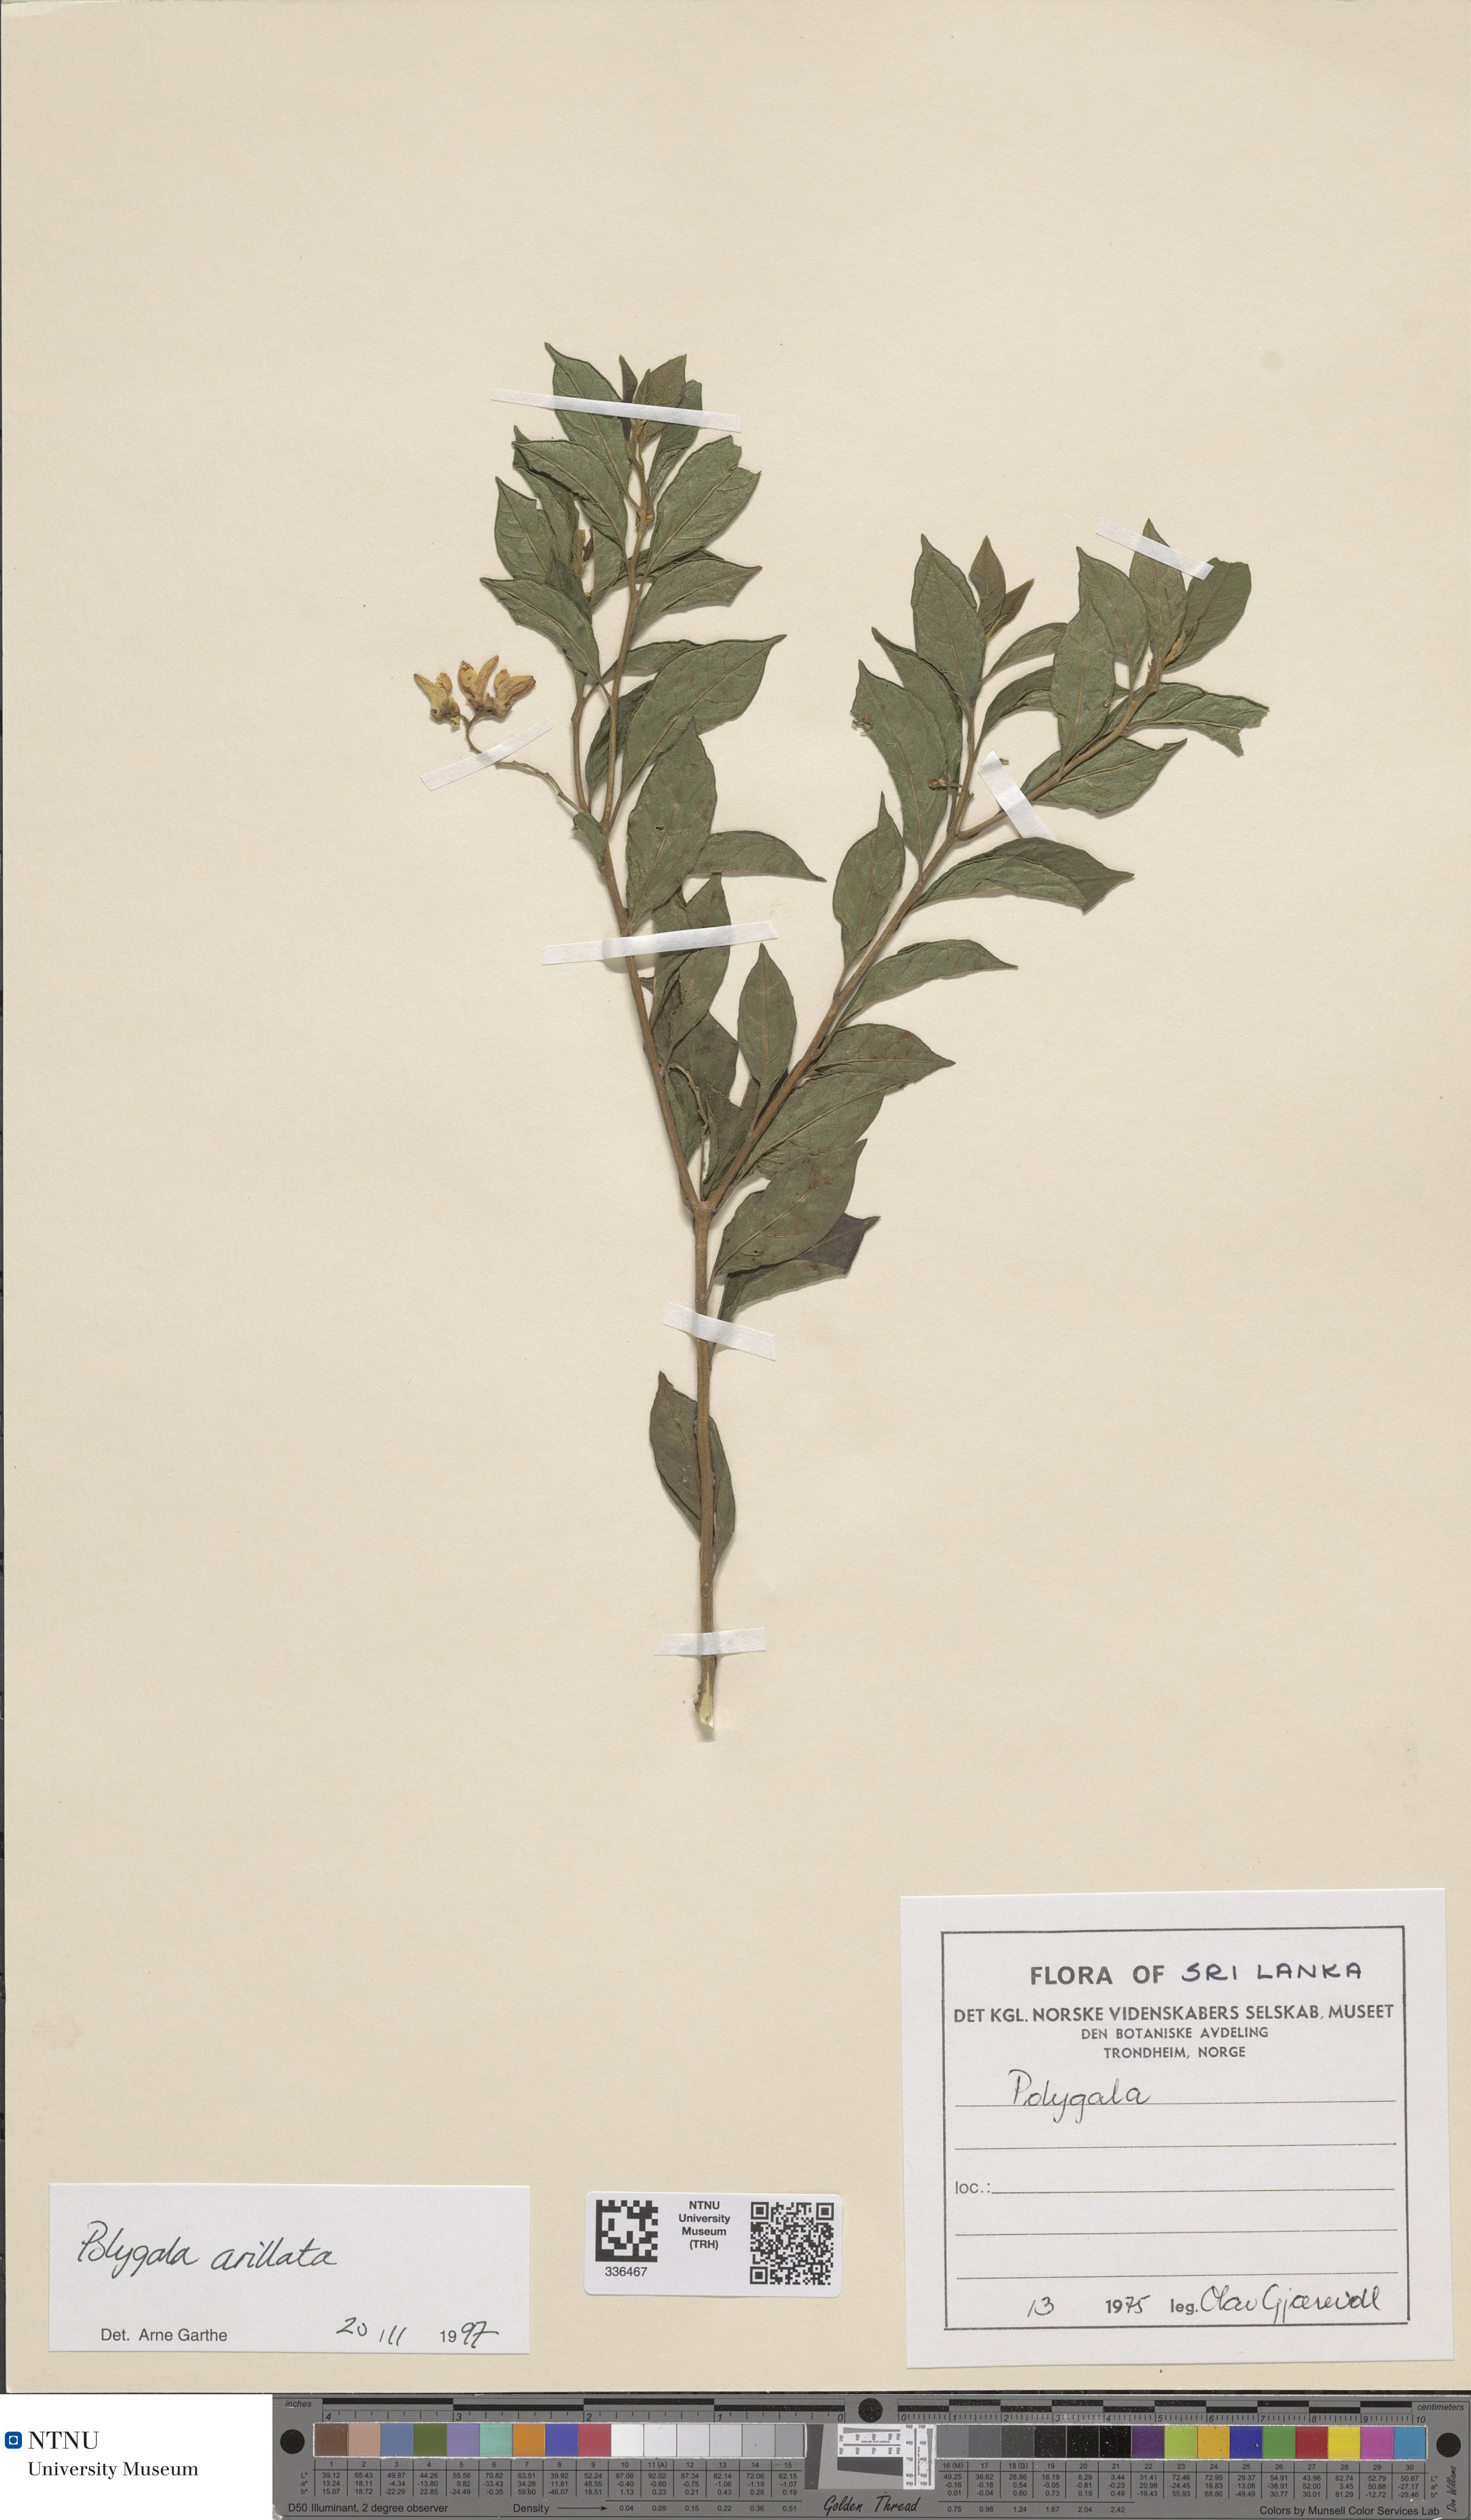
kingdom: Plantae
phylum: Tracheophyta
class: Magnoliopsida
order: Fabales
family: Polygalaceae
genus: Polygala
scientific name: Polygala arillata
